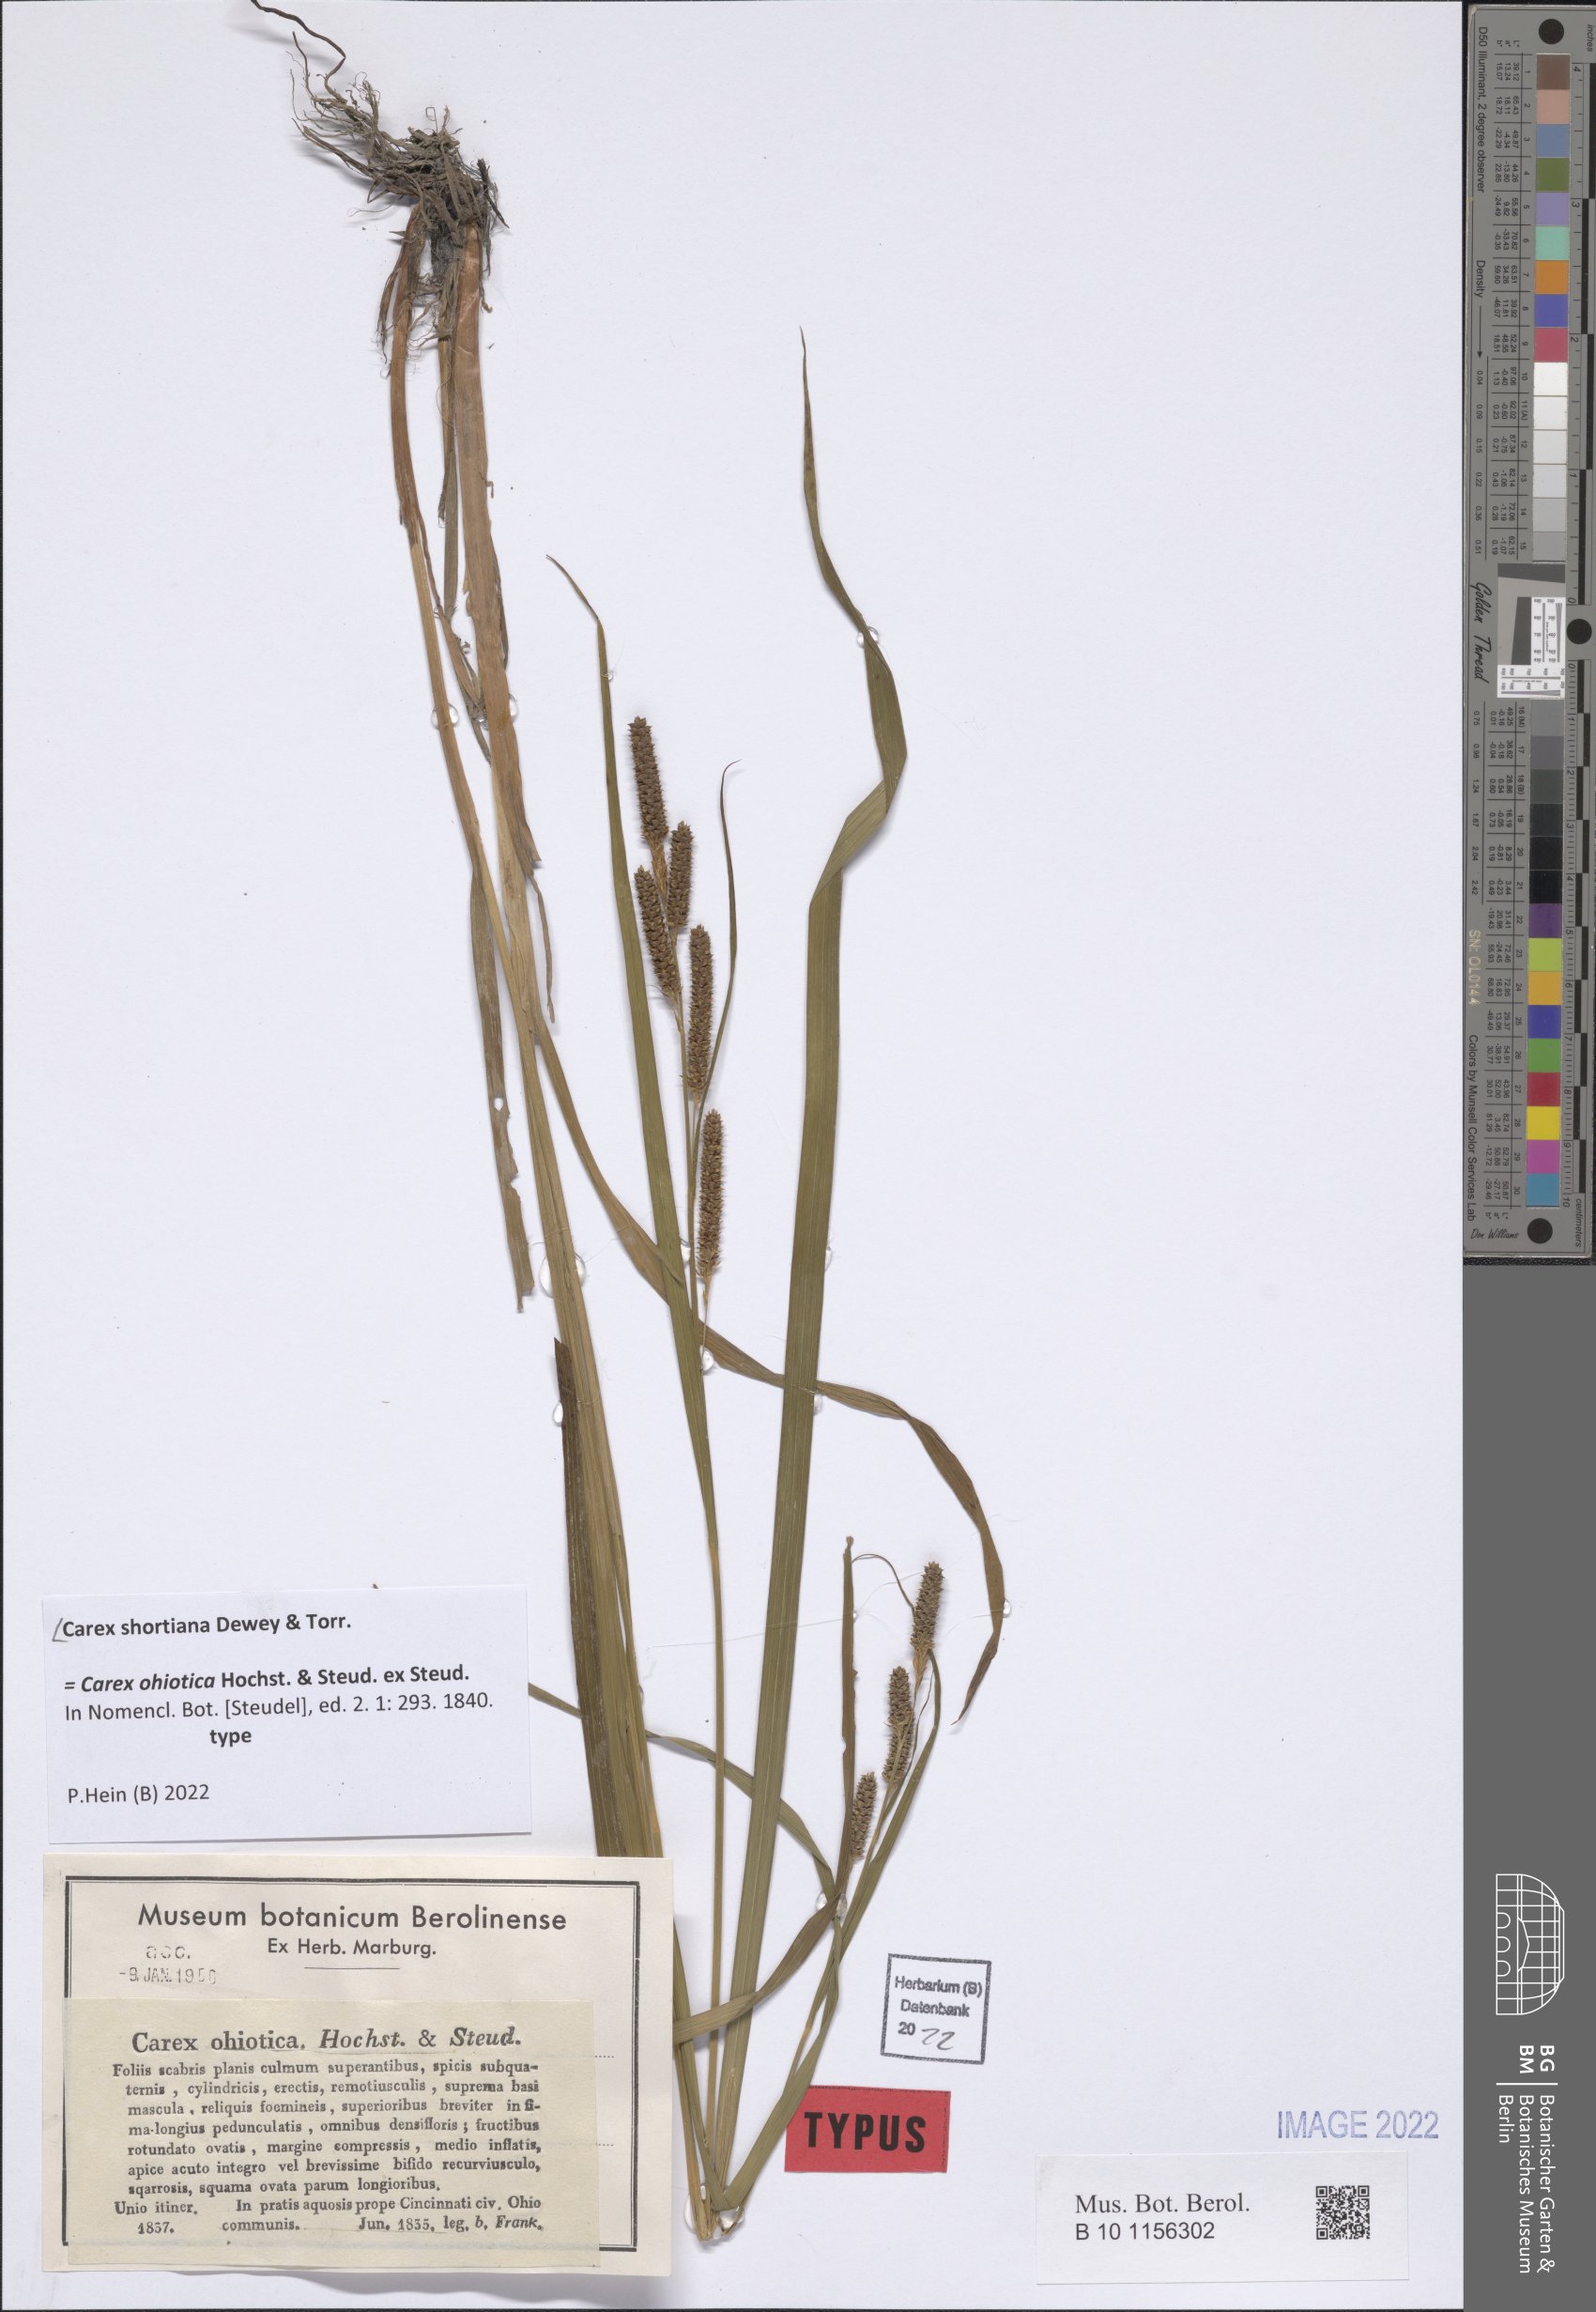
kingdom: Plantae
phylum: Tracheophyta
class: Liliopsida
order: Poales
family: Cyperaceae
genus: Carex
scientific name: Carex shortiana
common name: Short's sedge
